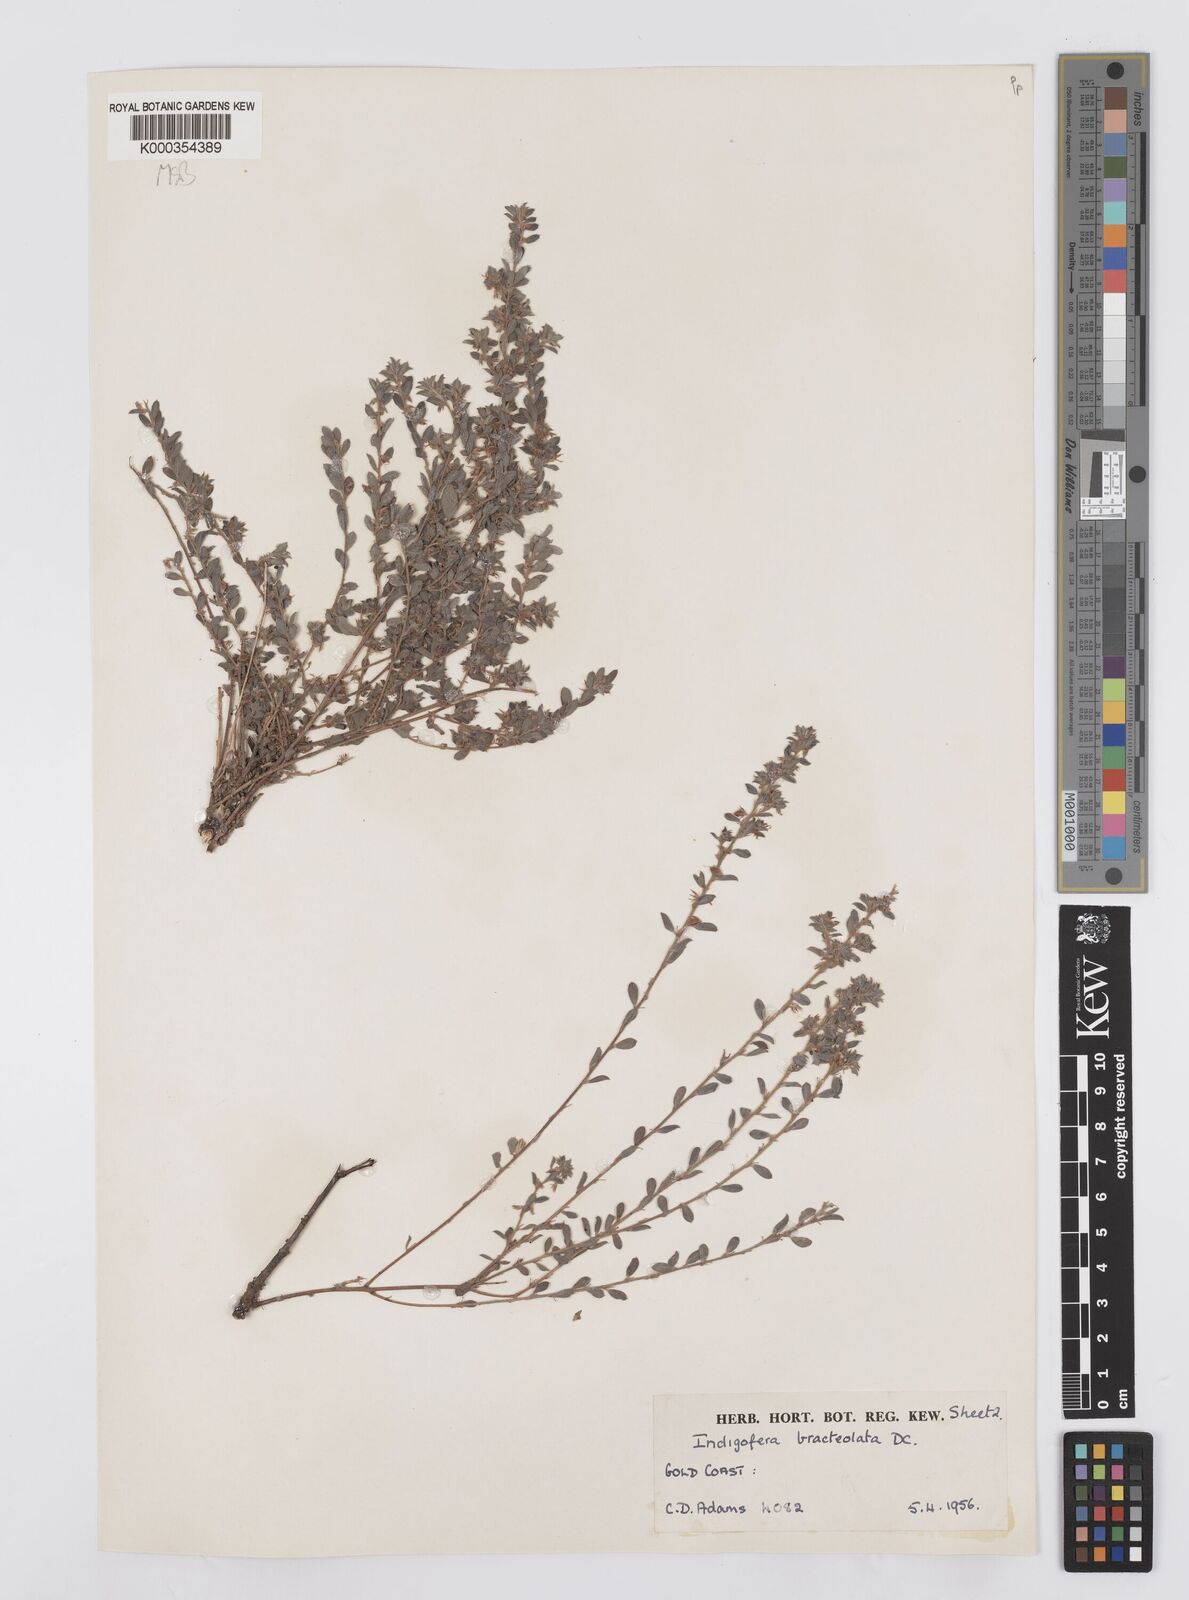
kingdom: Plantae
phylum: Tracheophyta
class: Magnoliopsida
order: Fabales
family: Fabaceae
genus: Indigofera
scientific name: Indigofera bracteolata
